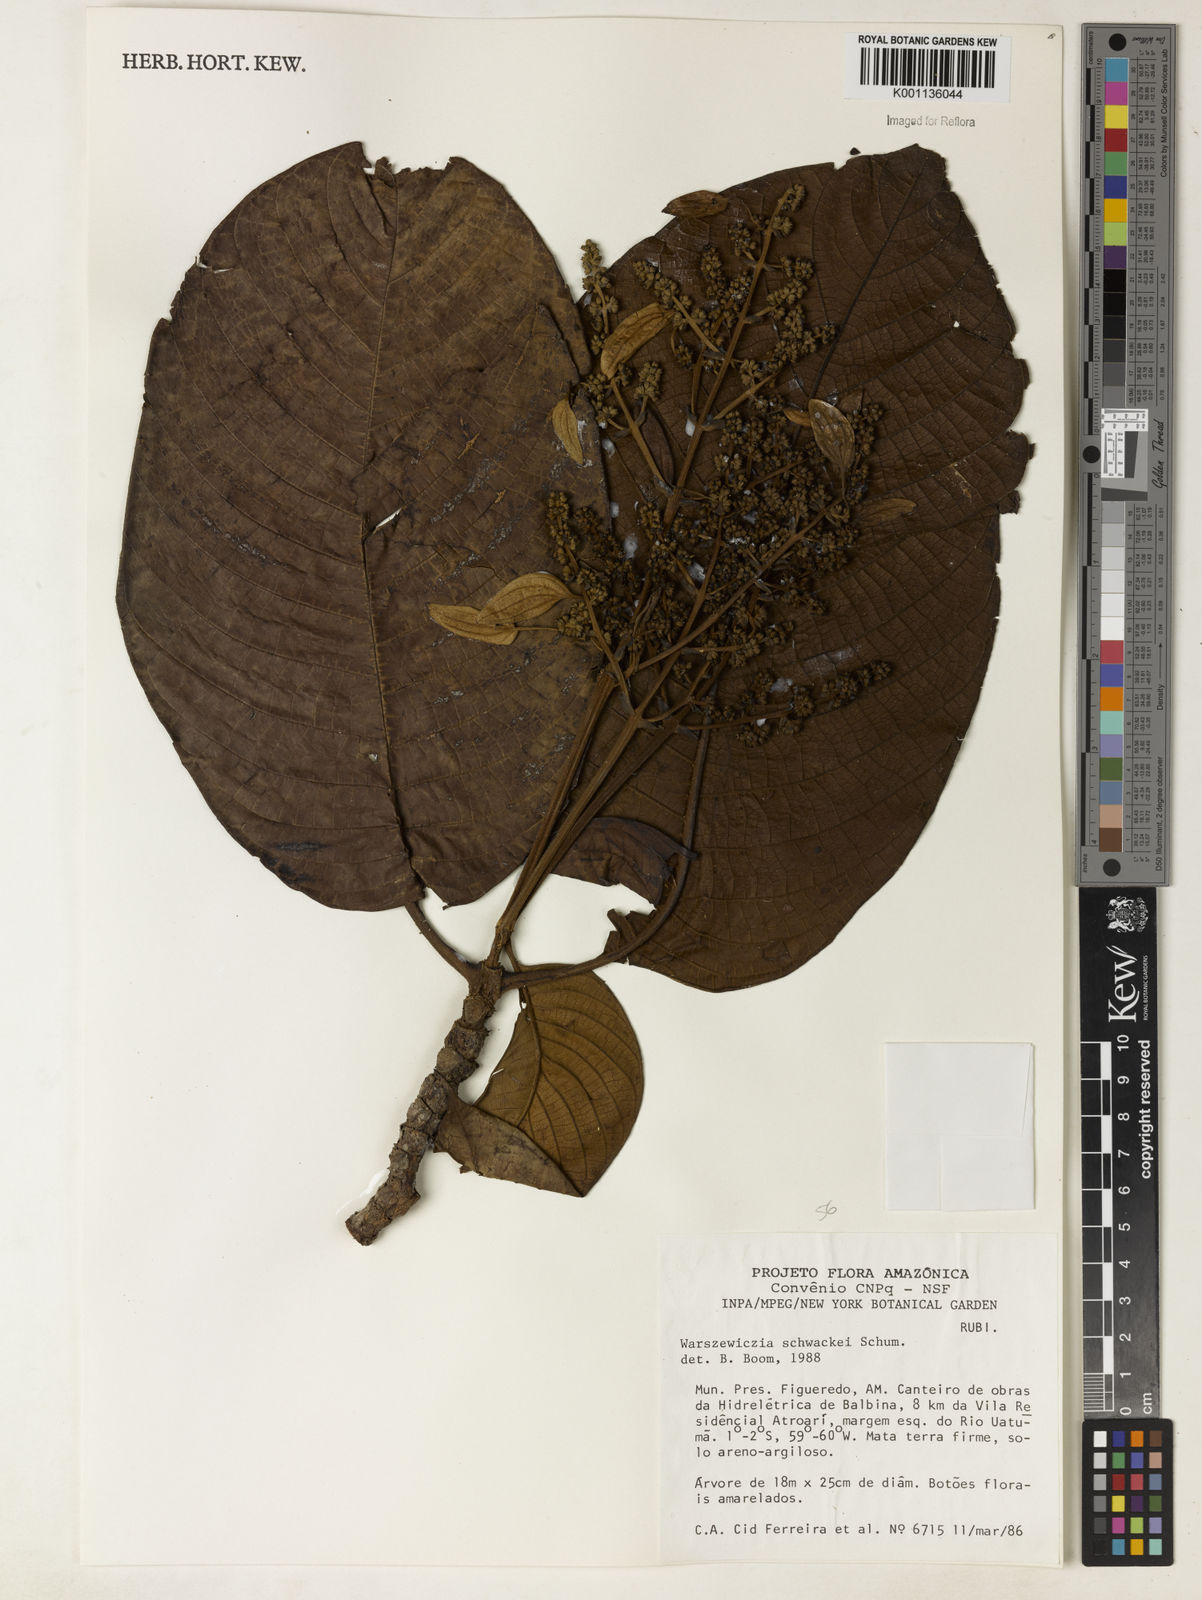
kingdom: Plantae
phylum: Tracheophyta
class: Magnoliopsida
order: Gentianales
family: Rubiaceae
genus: Warszewiczia
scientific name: Warszewiczia coccinea
